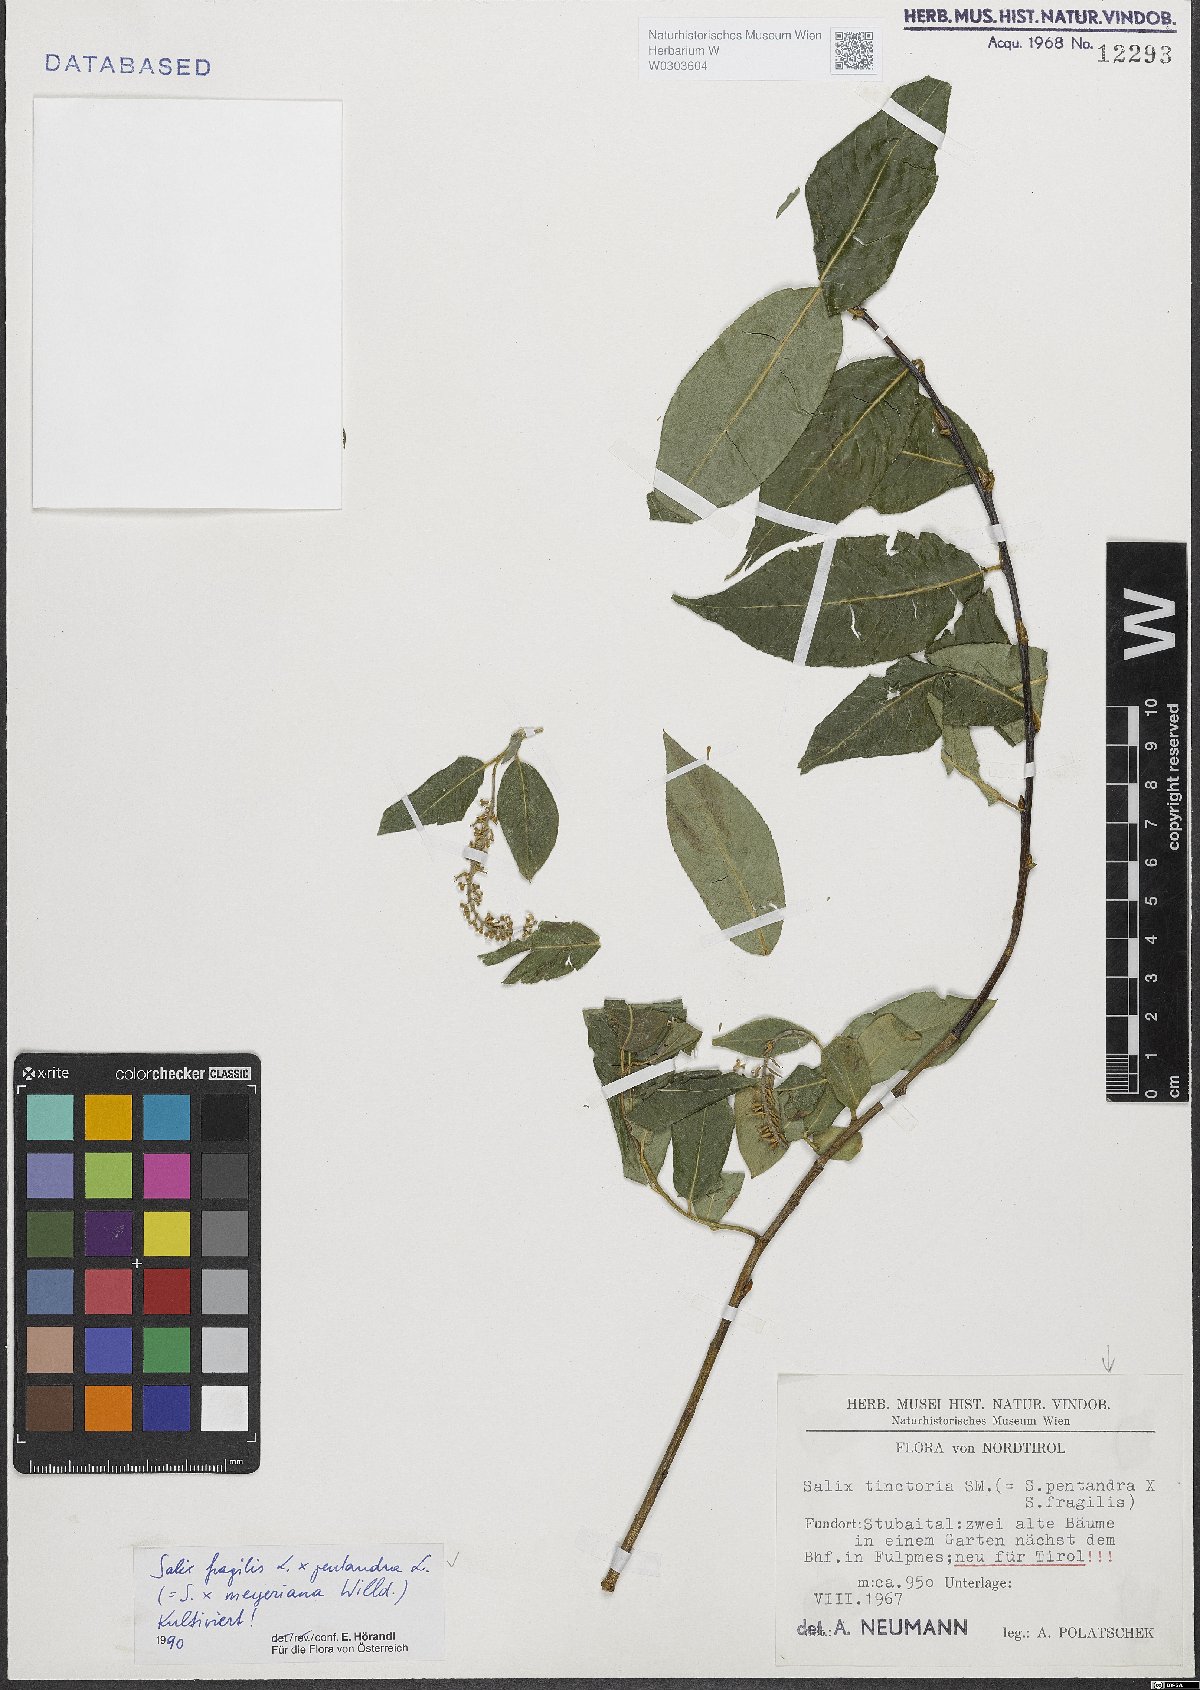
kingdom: Plantae
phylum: Tracheophyta
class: Magnoliopsida
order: Malpighiales
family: Salicaceae
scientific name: Salicaceae
